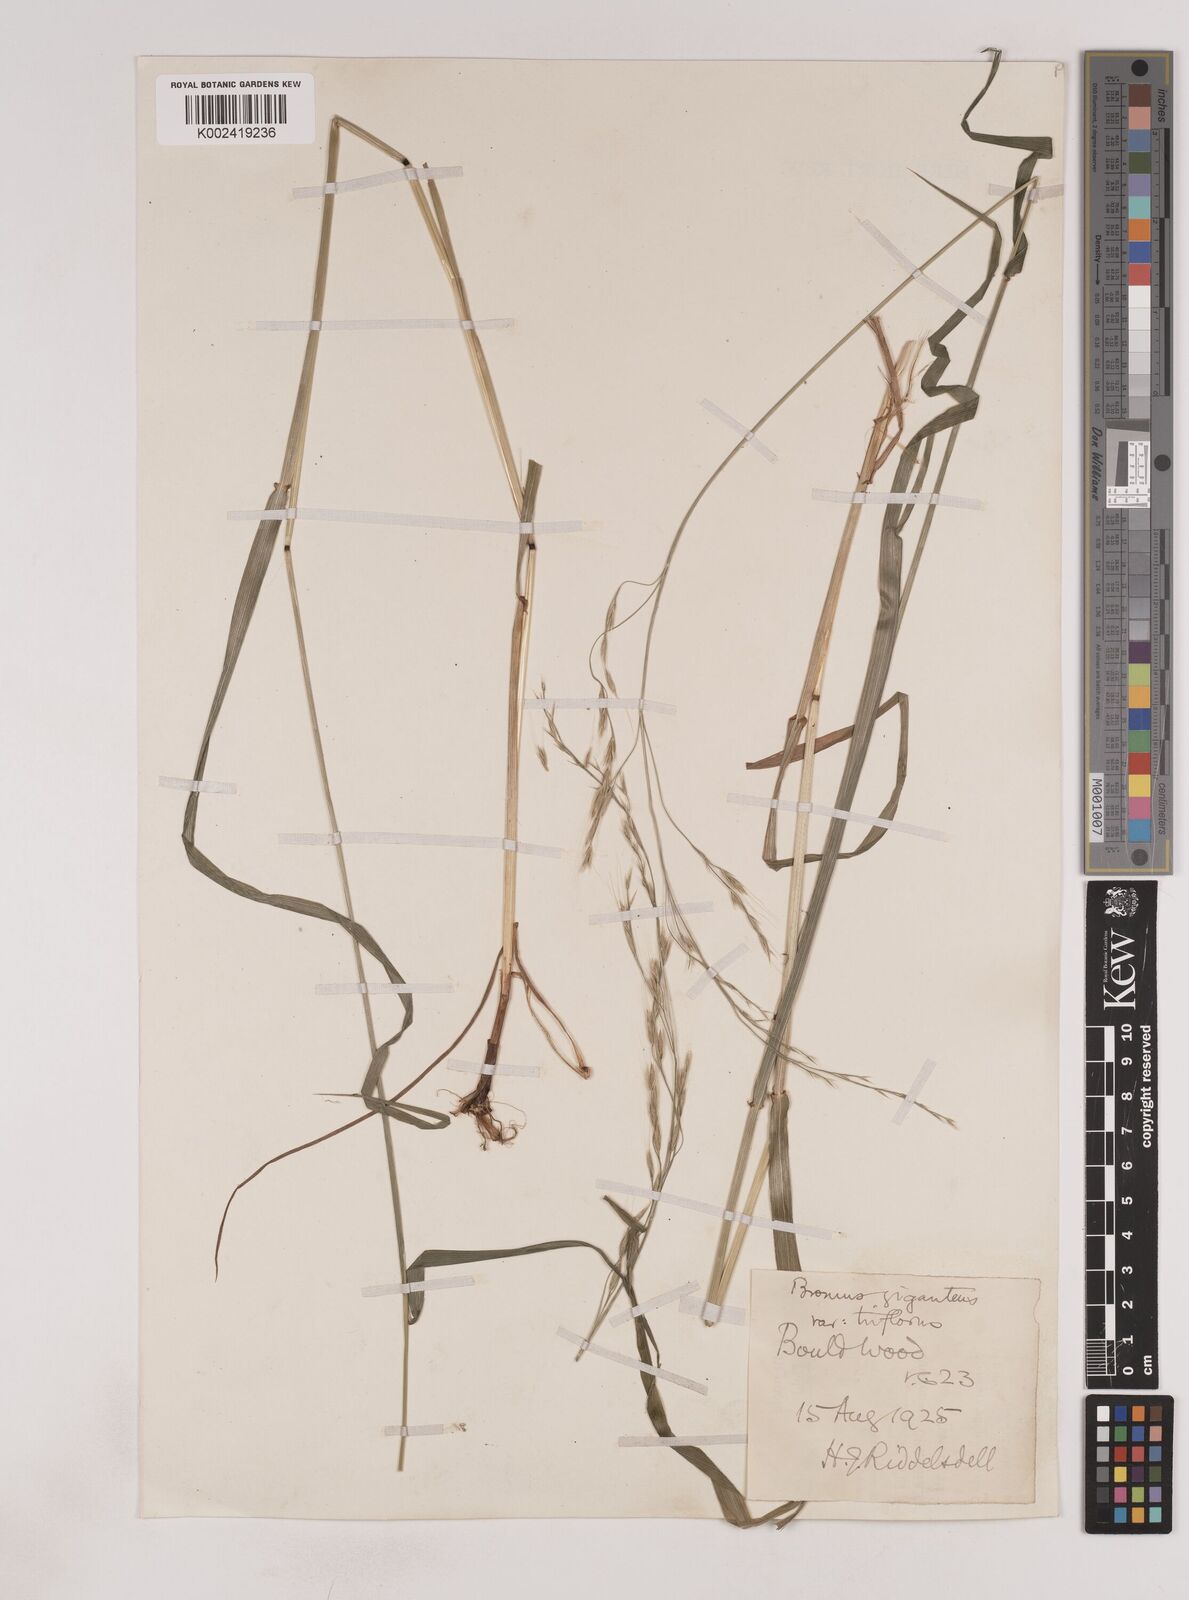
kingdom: Plantae
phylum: Tracheophyta
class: Liliopsida
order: Poales
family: Poaceae
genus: Lolium
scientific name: Lolium giganteum
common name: Giant fescue
